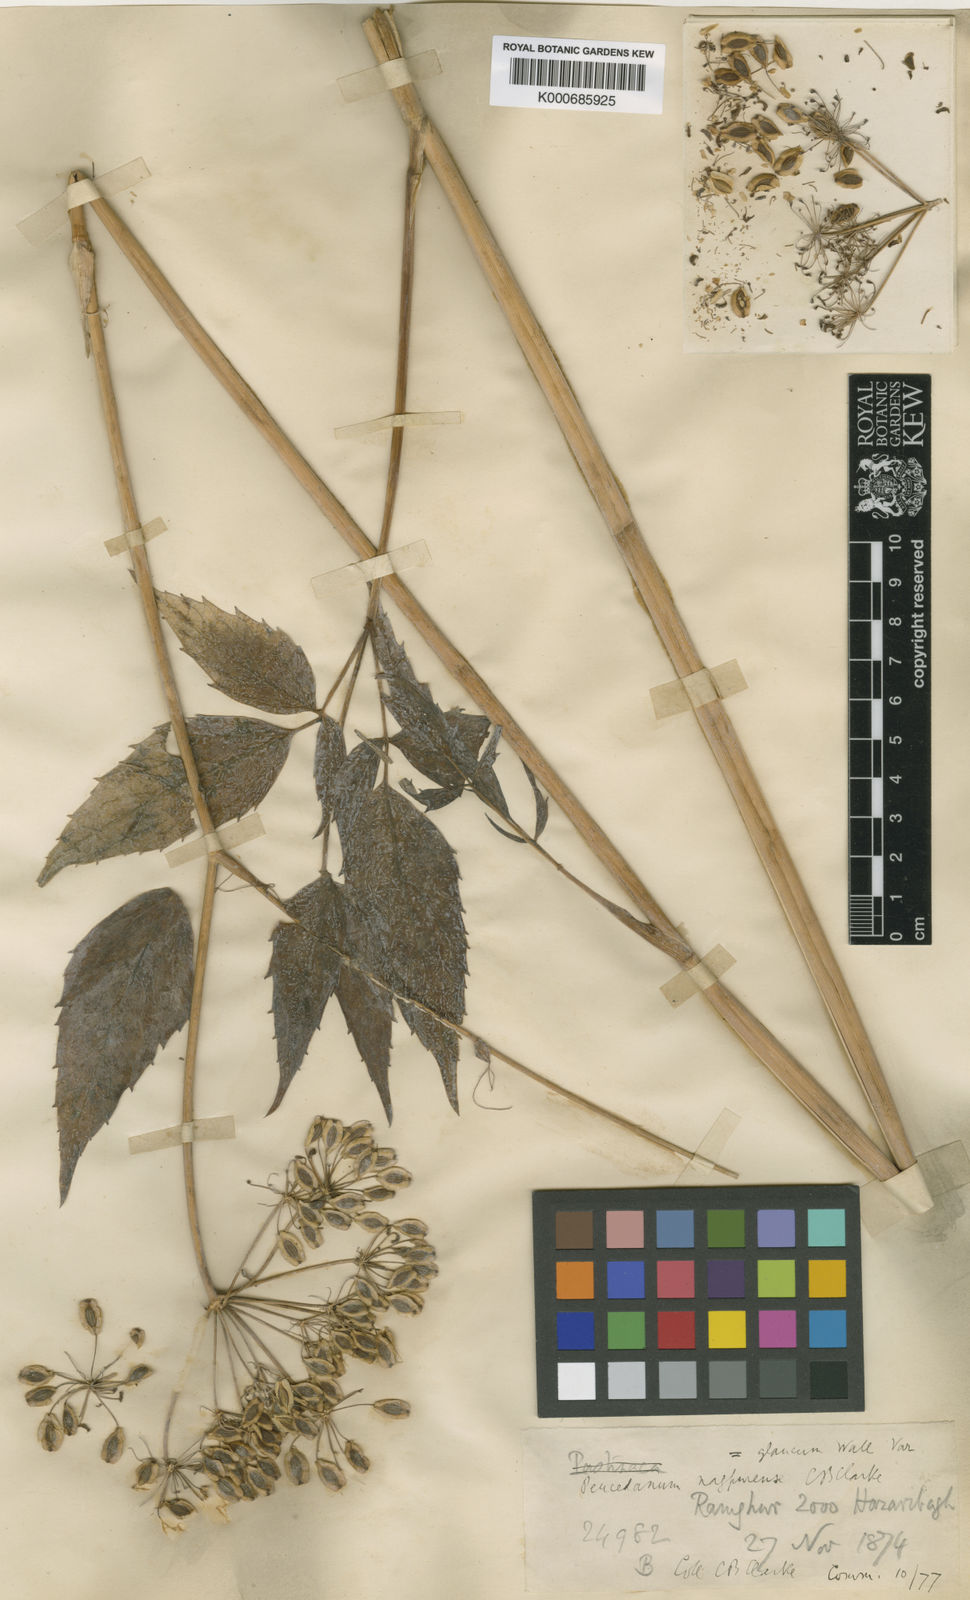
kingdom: Plantae
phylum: Tracheophyta
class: Magnoliopsida
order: Apiales
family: Apiaceae
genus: Peucedanum
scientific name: Peucedanum
